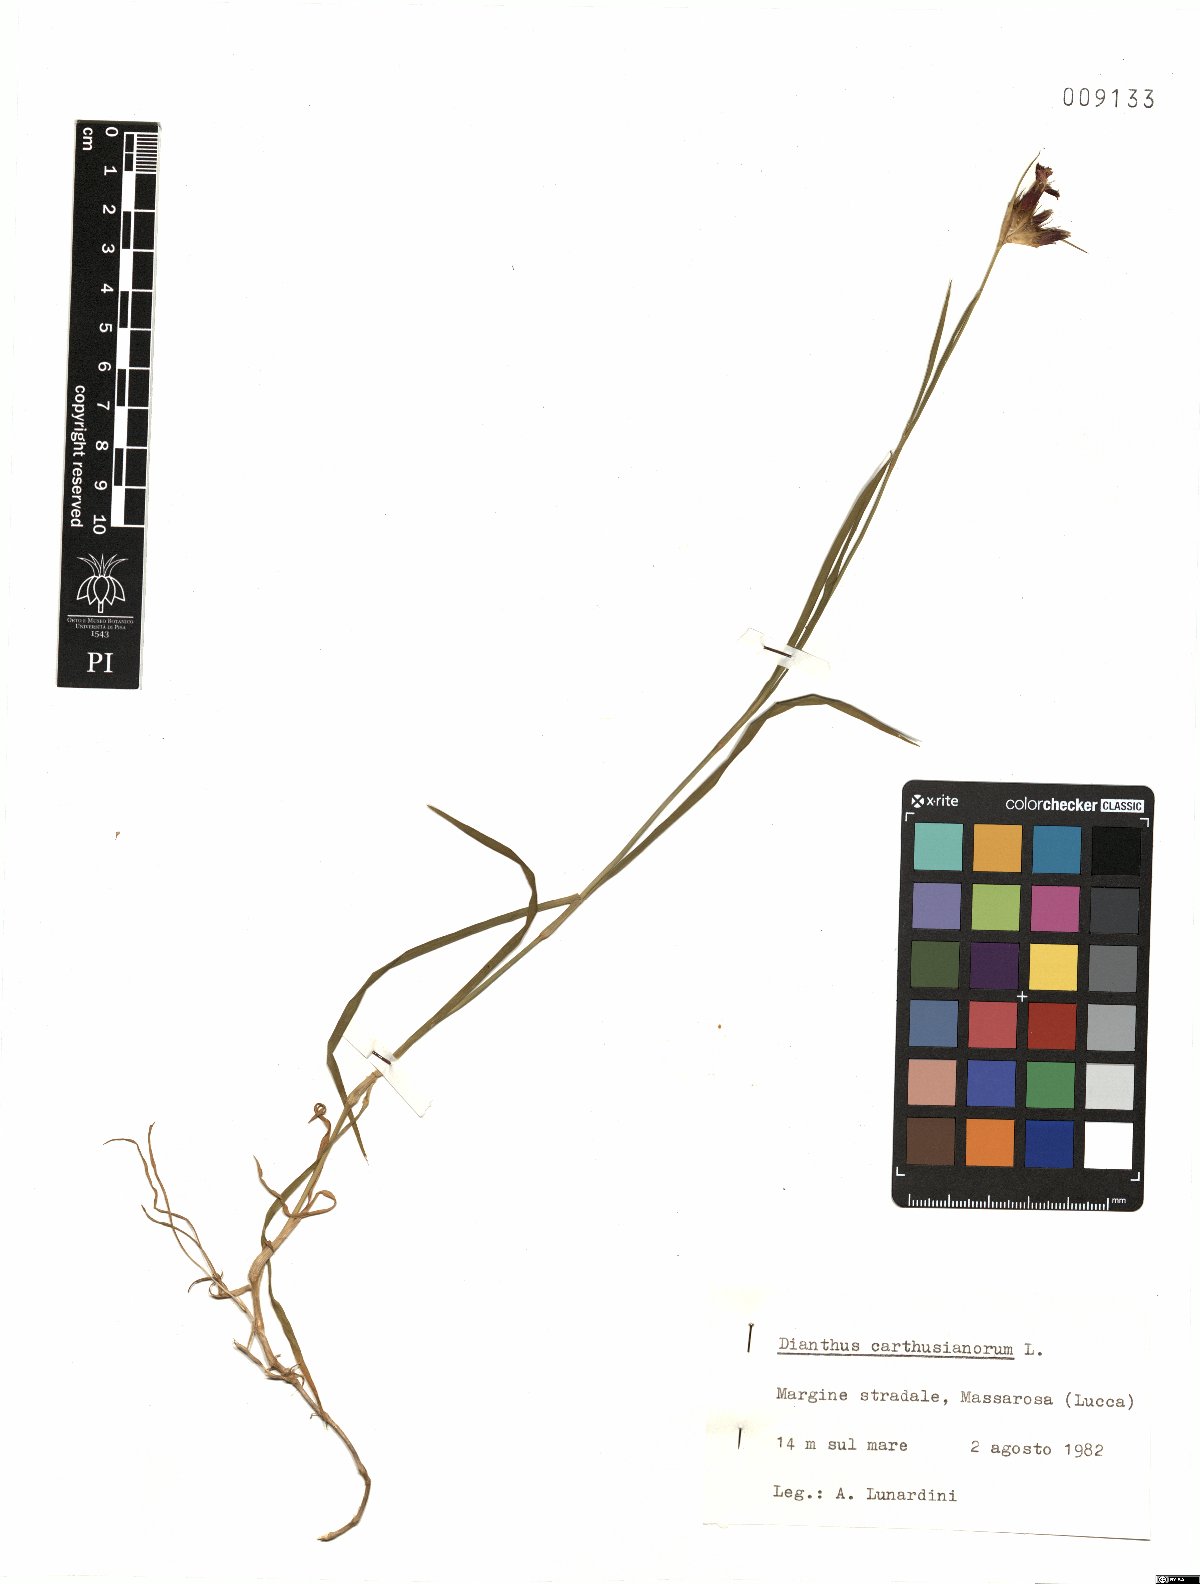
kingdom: Plantae
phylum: Tracheophyta
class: Magnoliopsida
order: Caryophyllales
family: Caryophyllaceae
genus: Dianthus
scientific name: Dianthus carthusianorum
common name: Carthusian pink
